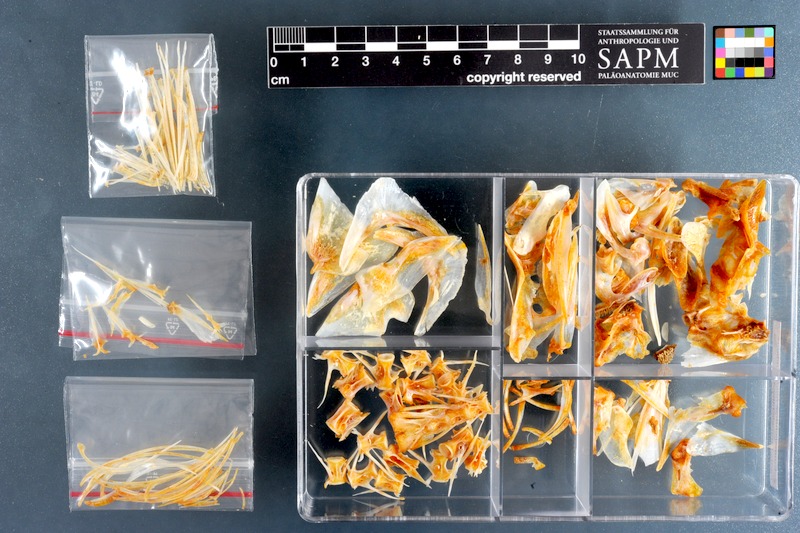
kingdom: Animalia
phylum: Chordata
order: Perciformes
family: Emmelichthyidae
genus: Emmelichthys
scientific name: Emmelichthys nitidus
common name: Cape bonnetmouth
